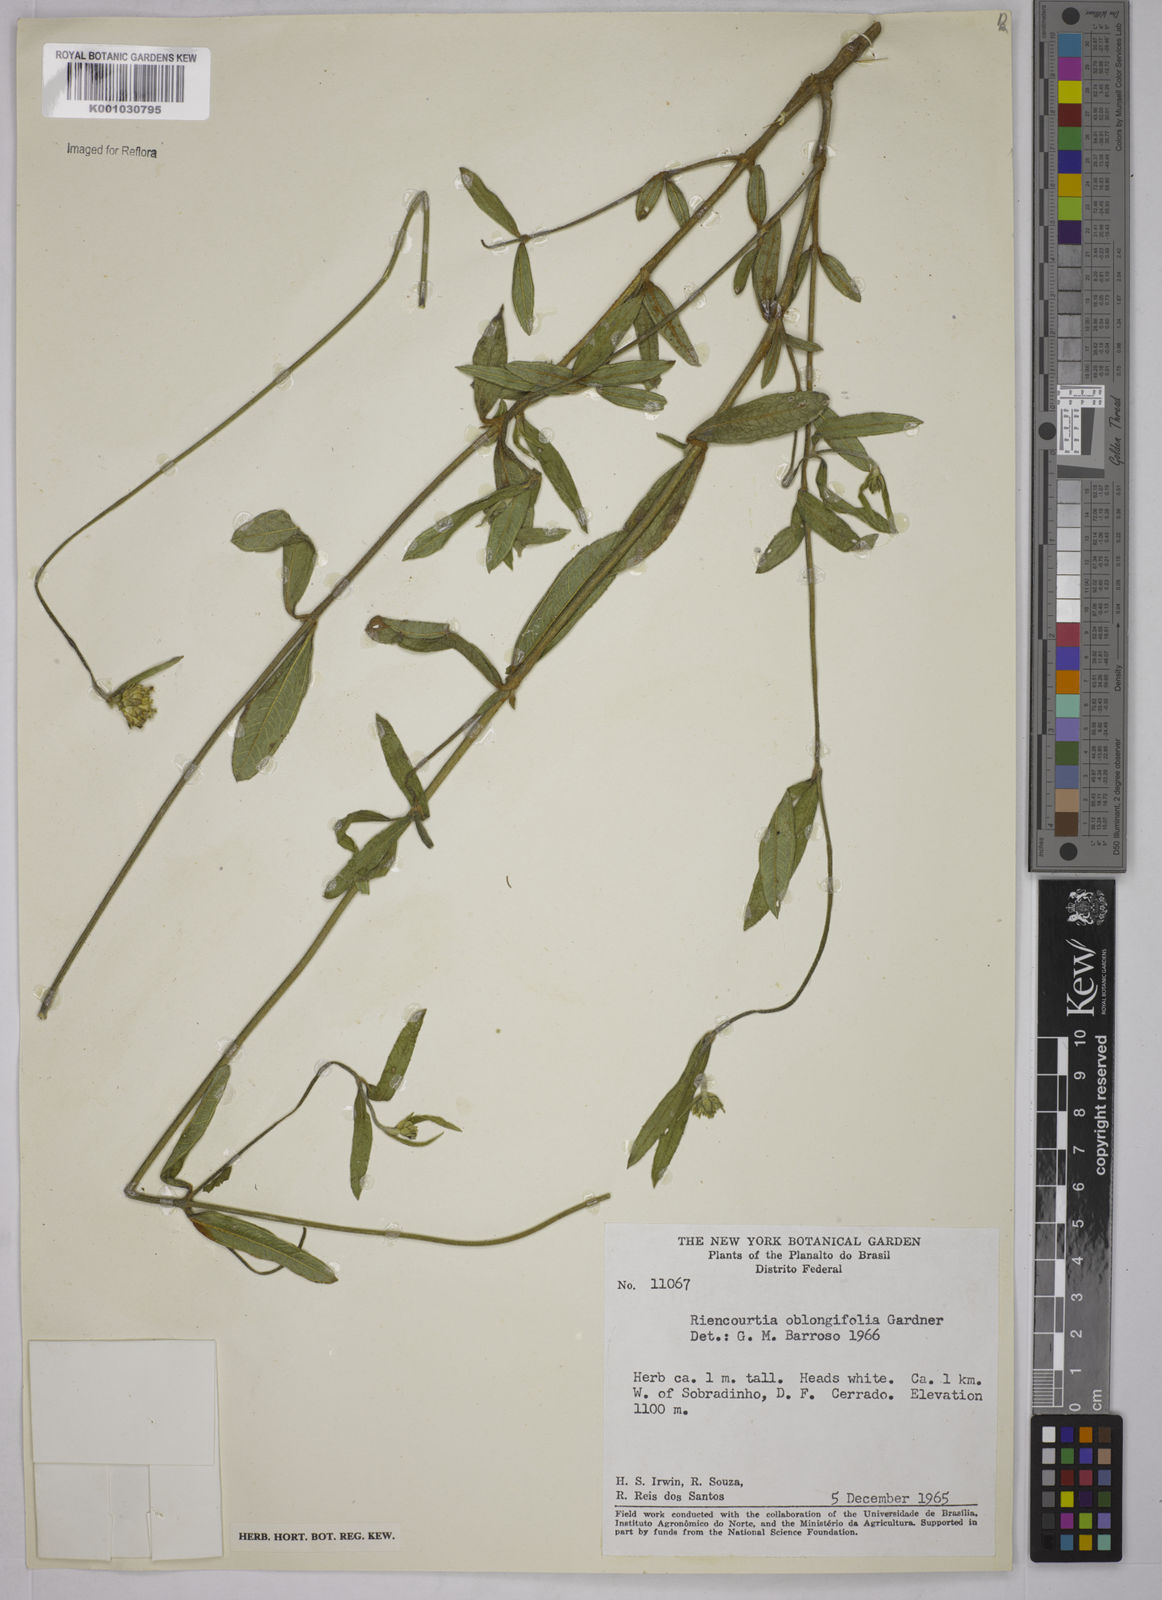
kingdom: Plantae
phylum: Tracheophyta
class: Magnoliopsida
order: Asterales
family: Asteraceae
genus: Riencourtia
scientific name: Riencourtia oblongifolia
